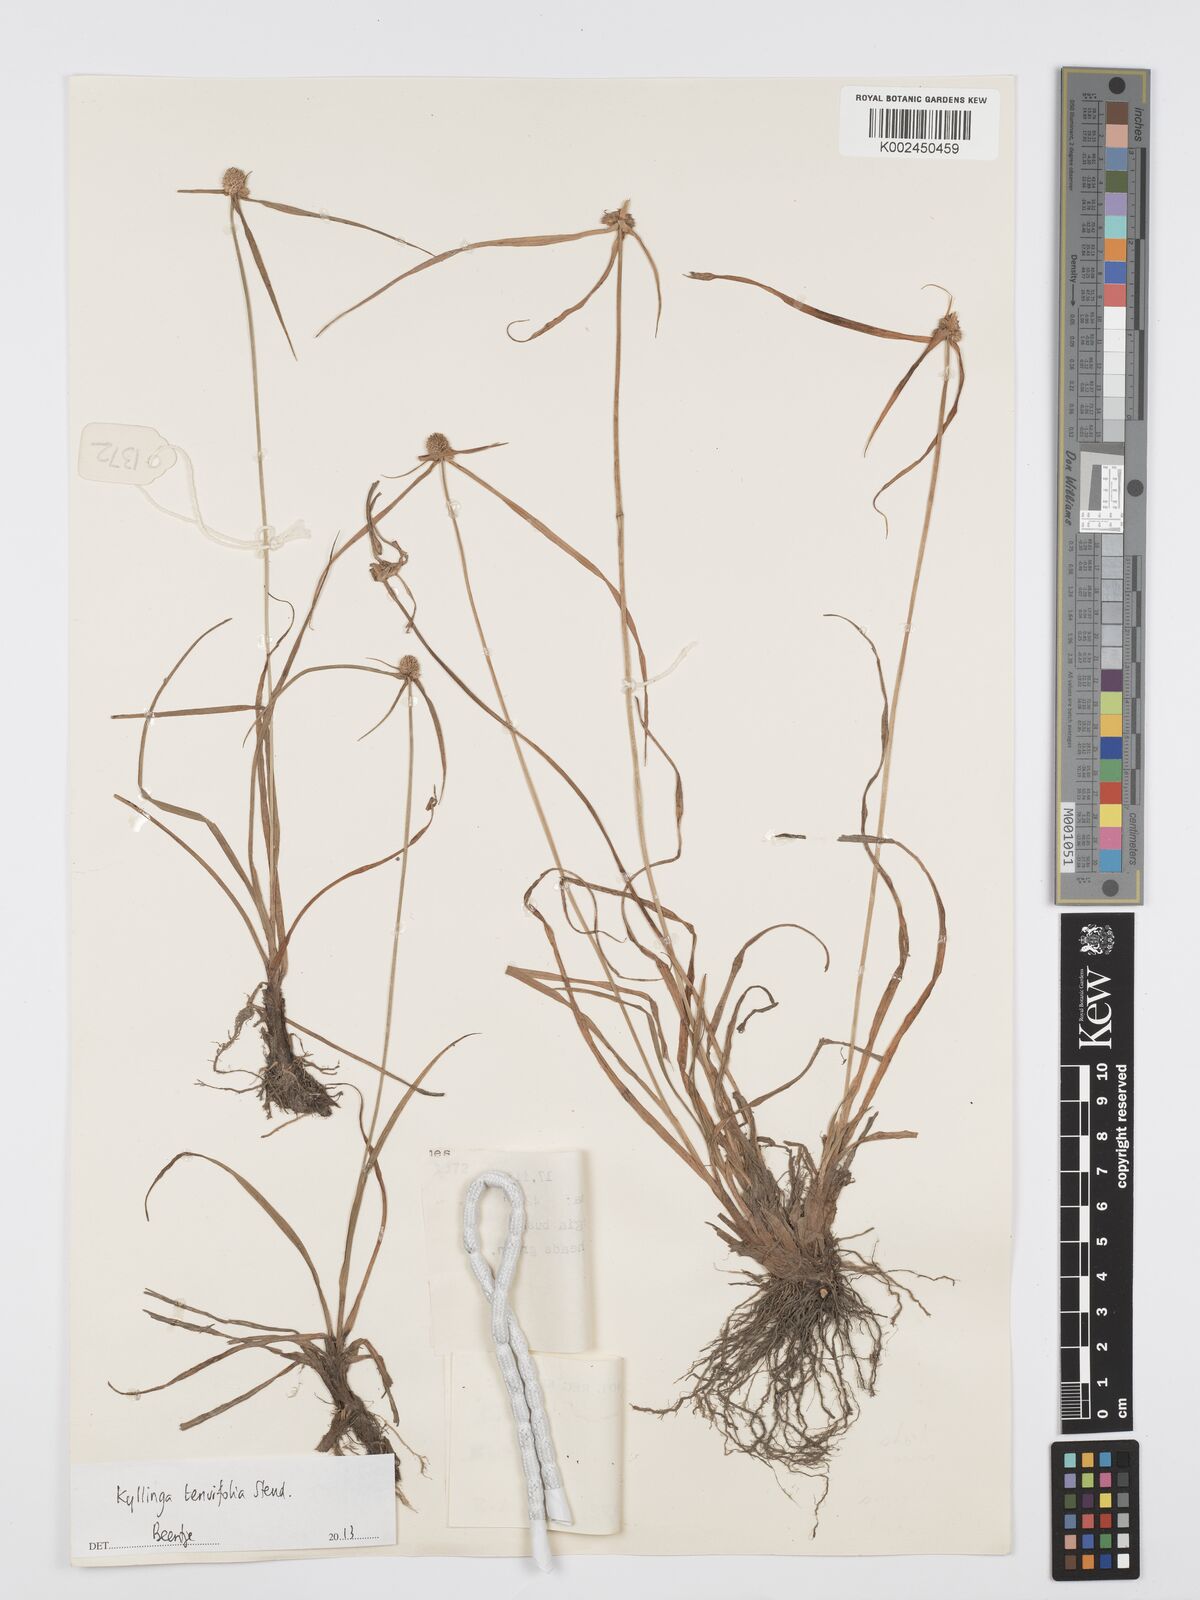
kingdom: Plantae
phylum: Tracheophyta
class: Liliopsida
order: Poales
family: Cyperaceae
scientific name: Cyperaceae
